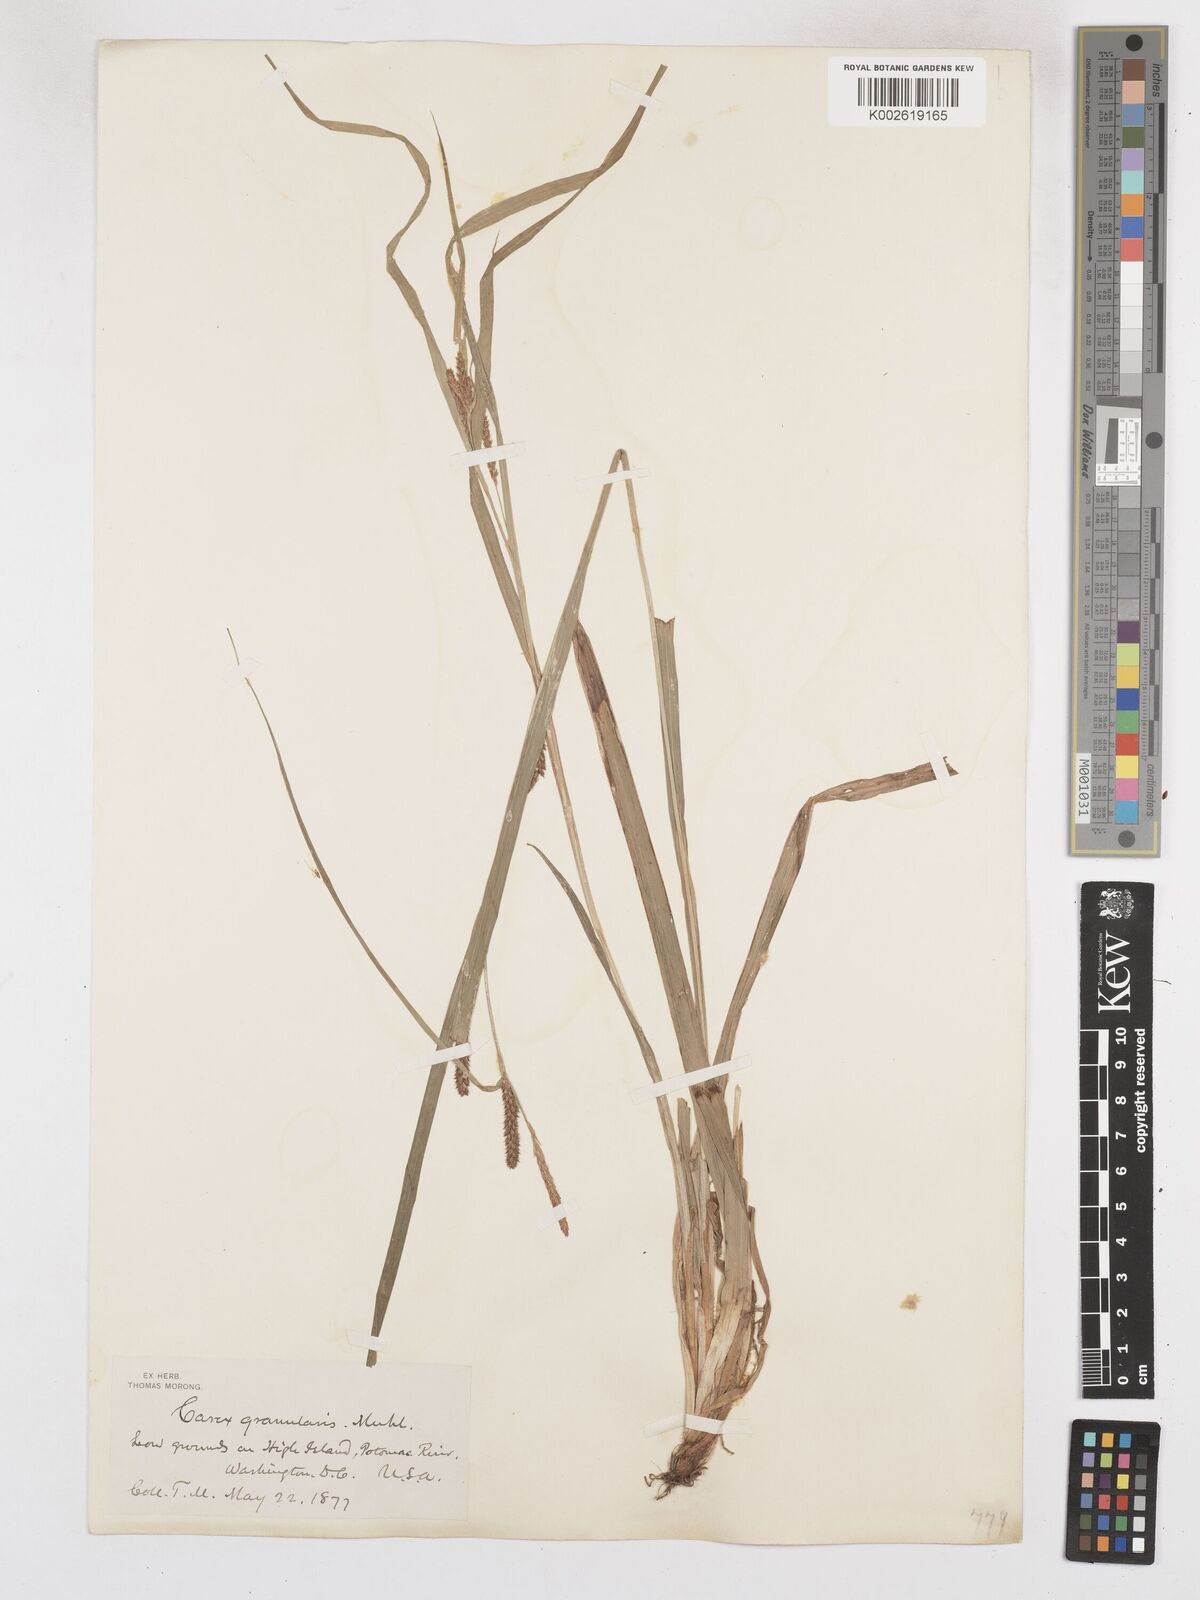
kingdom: Plantae
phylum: Tracheophyta
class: Liliopsida
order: Poales
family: Cyperaceae
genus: Carex
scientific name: Carex granularis
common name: Granular sedge
